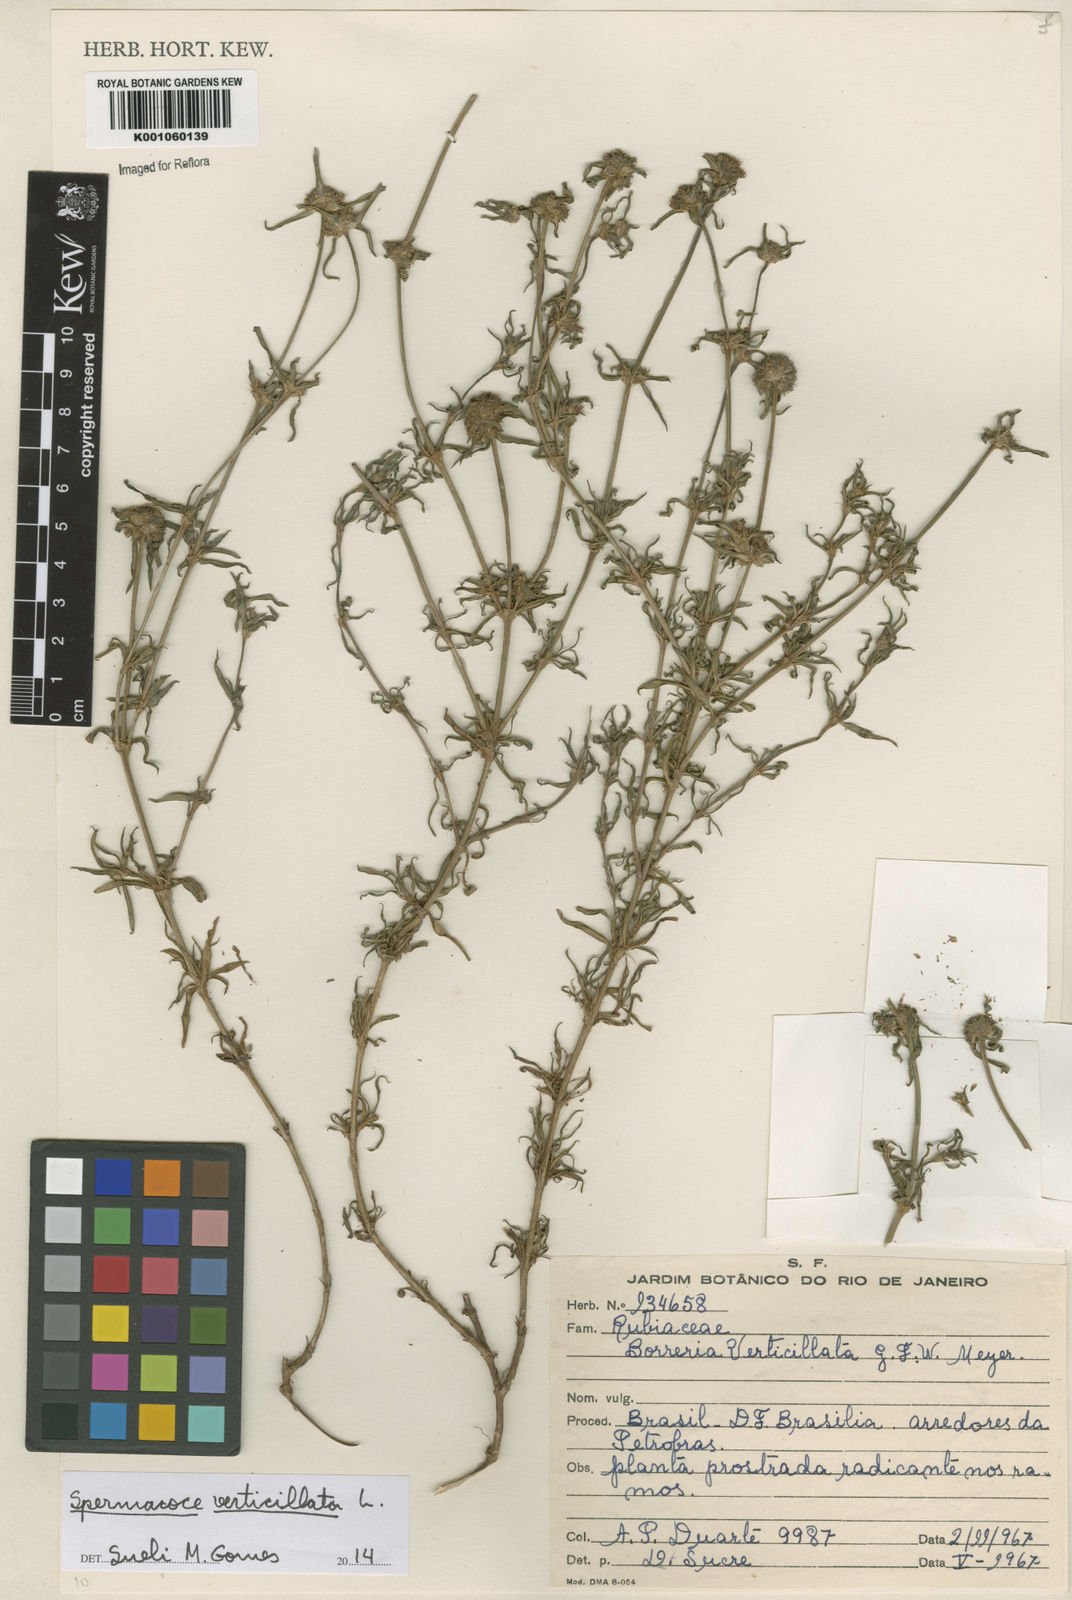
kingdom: Plantae
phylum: Tracheophyta
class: Magnoliopsida
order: Gentianales
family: Rubiaceae
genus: Spermacoce
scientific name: Spermacoce verticillata
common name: Shrubby false buttonweed
